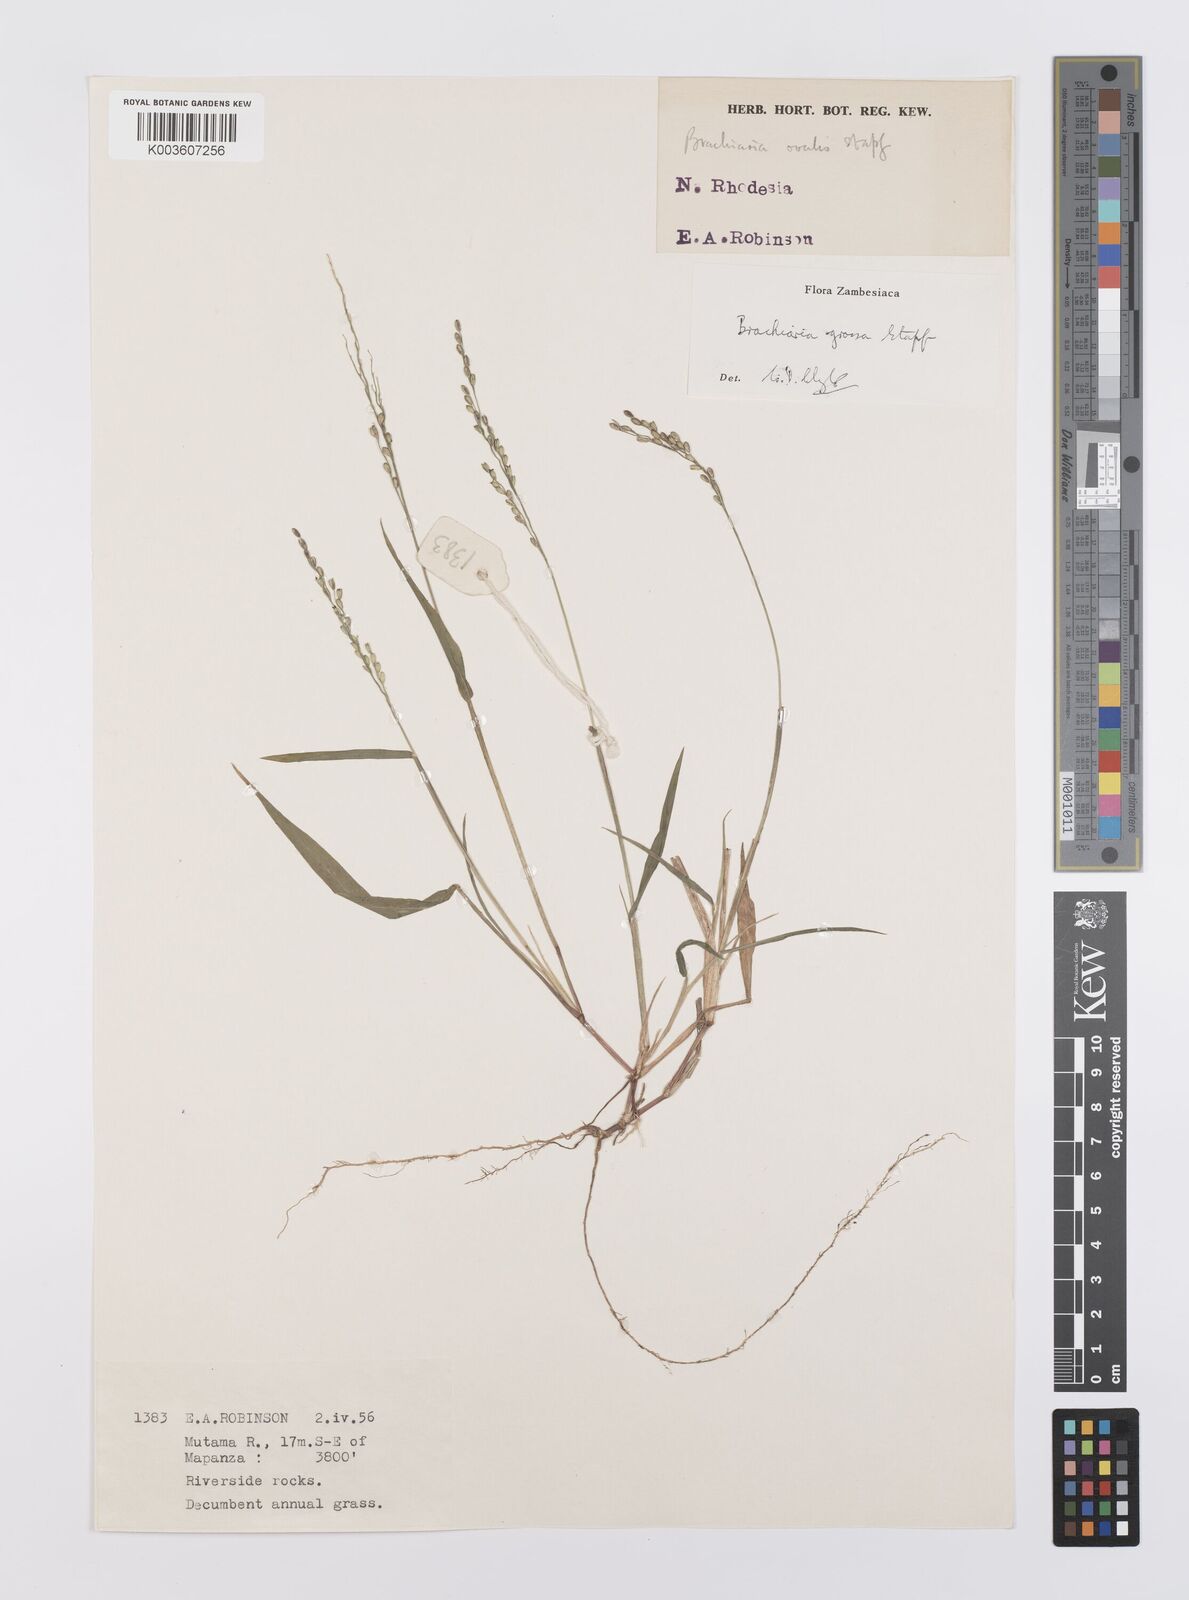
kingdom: Plantae
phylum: Tracheophyta
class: Liliopsida
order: Poales
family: Poaceae
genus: Urochloa
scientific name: Urochloa Brachiaria grossa
